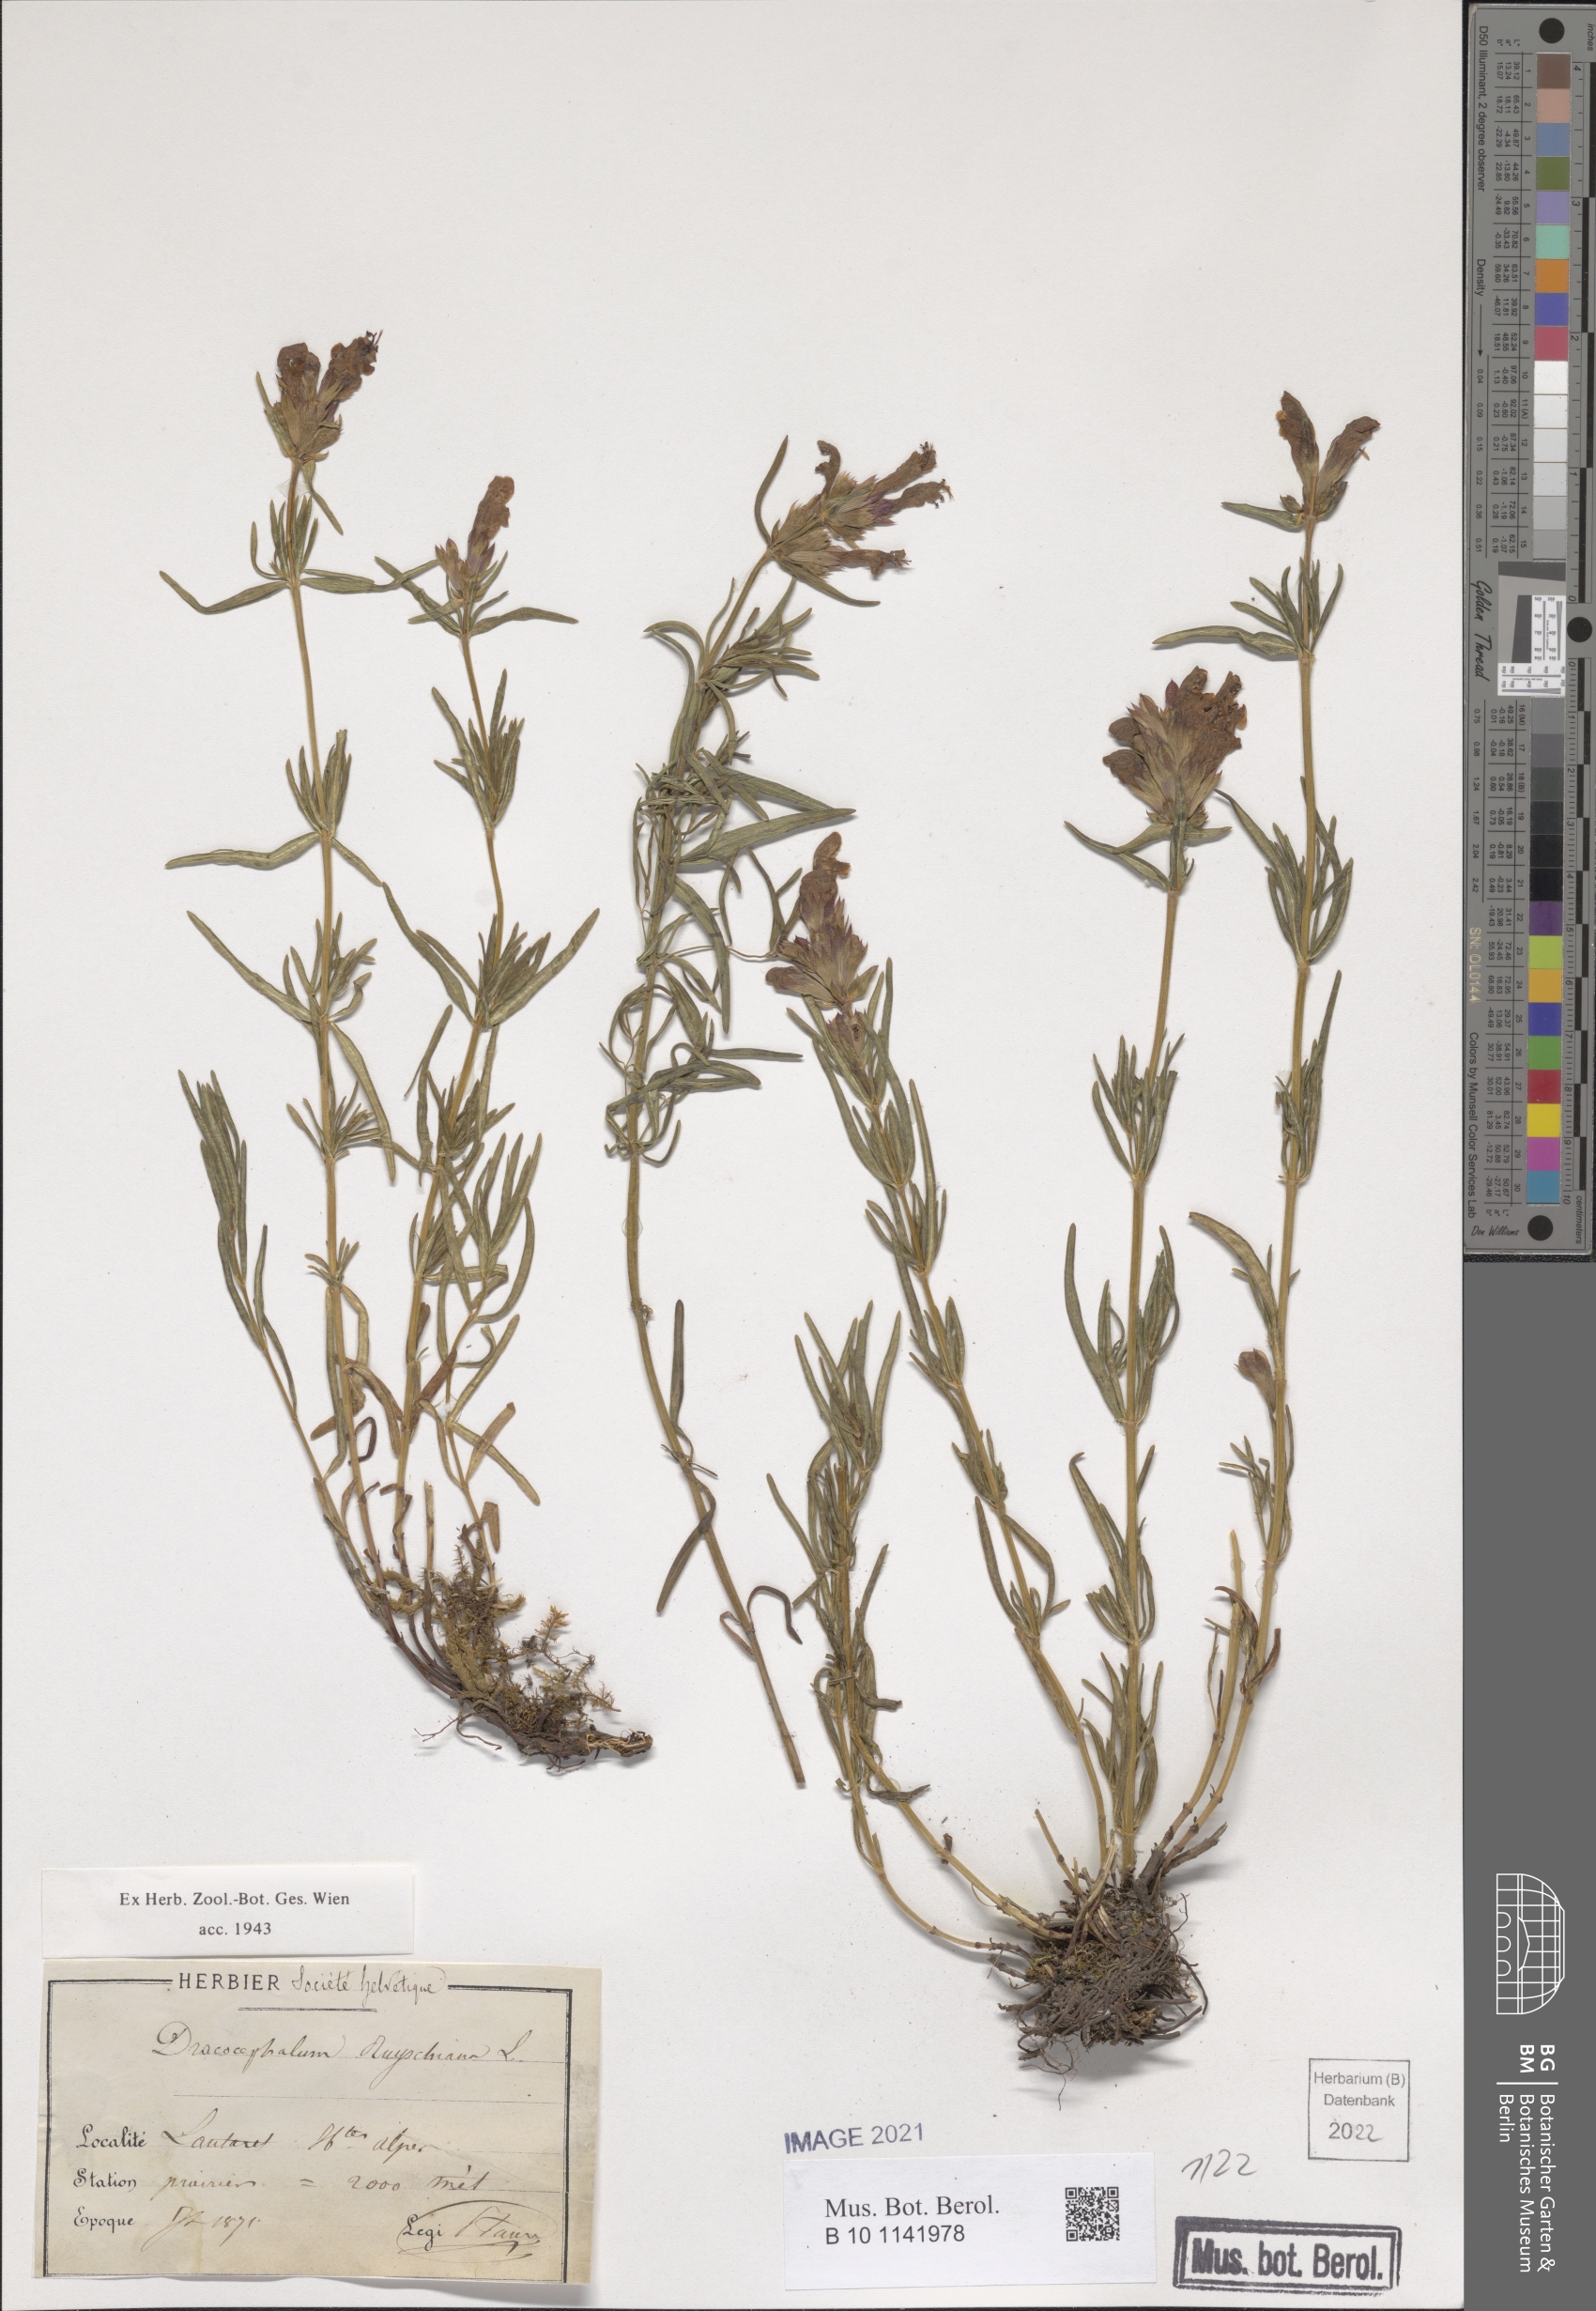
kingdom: Plantae
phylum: Tracheophyta
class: Magnoliopsida
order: Lamiales
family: Lamiaceae
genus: Dracocephalum
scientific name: Dracocephalum ruyschiana
